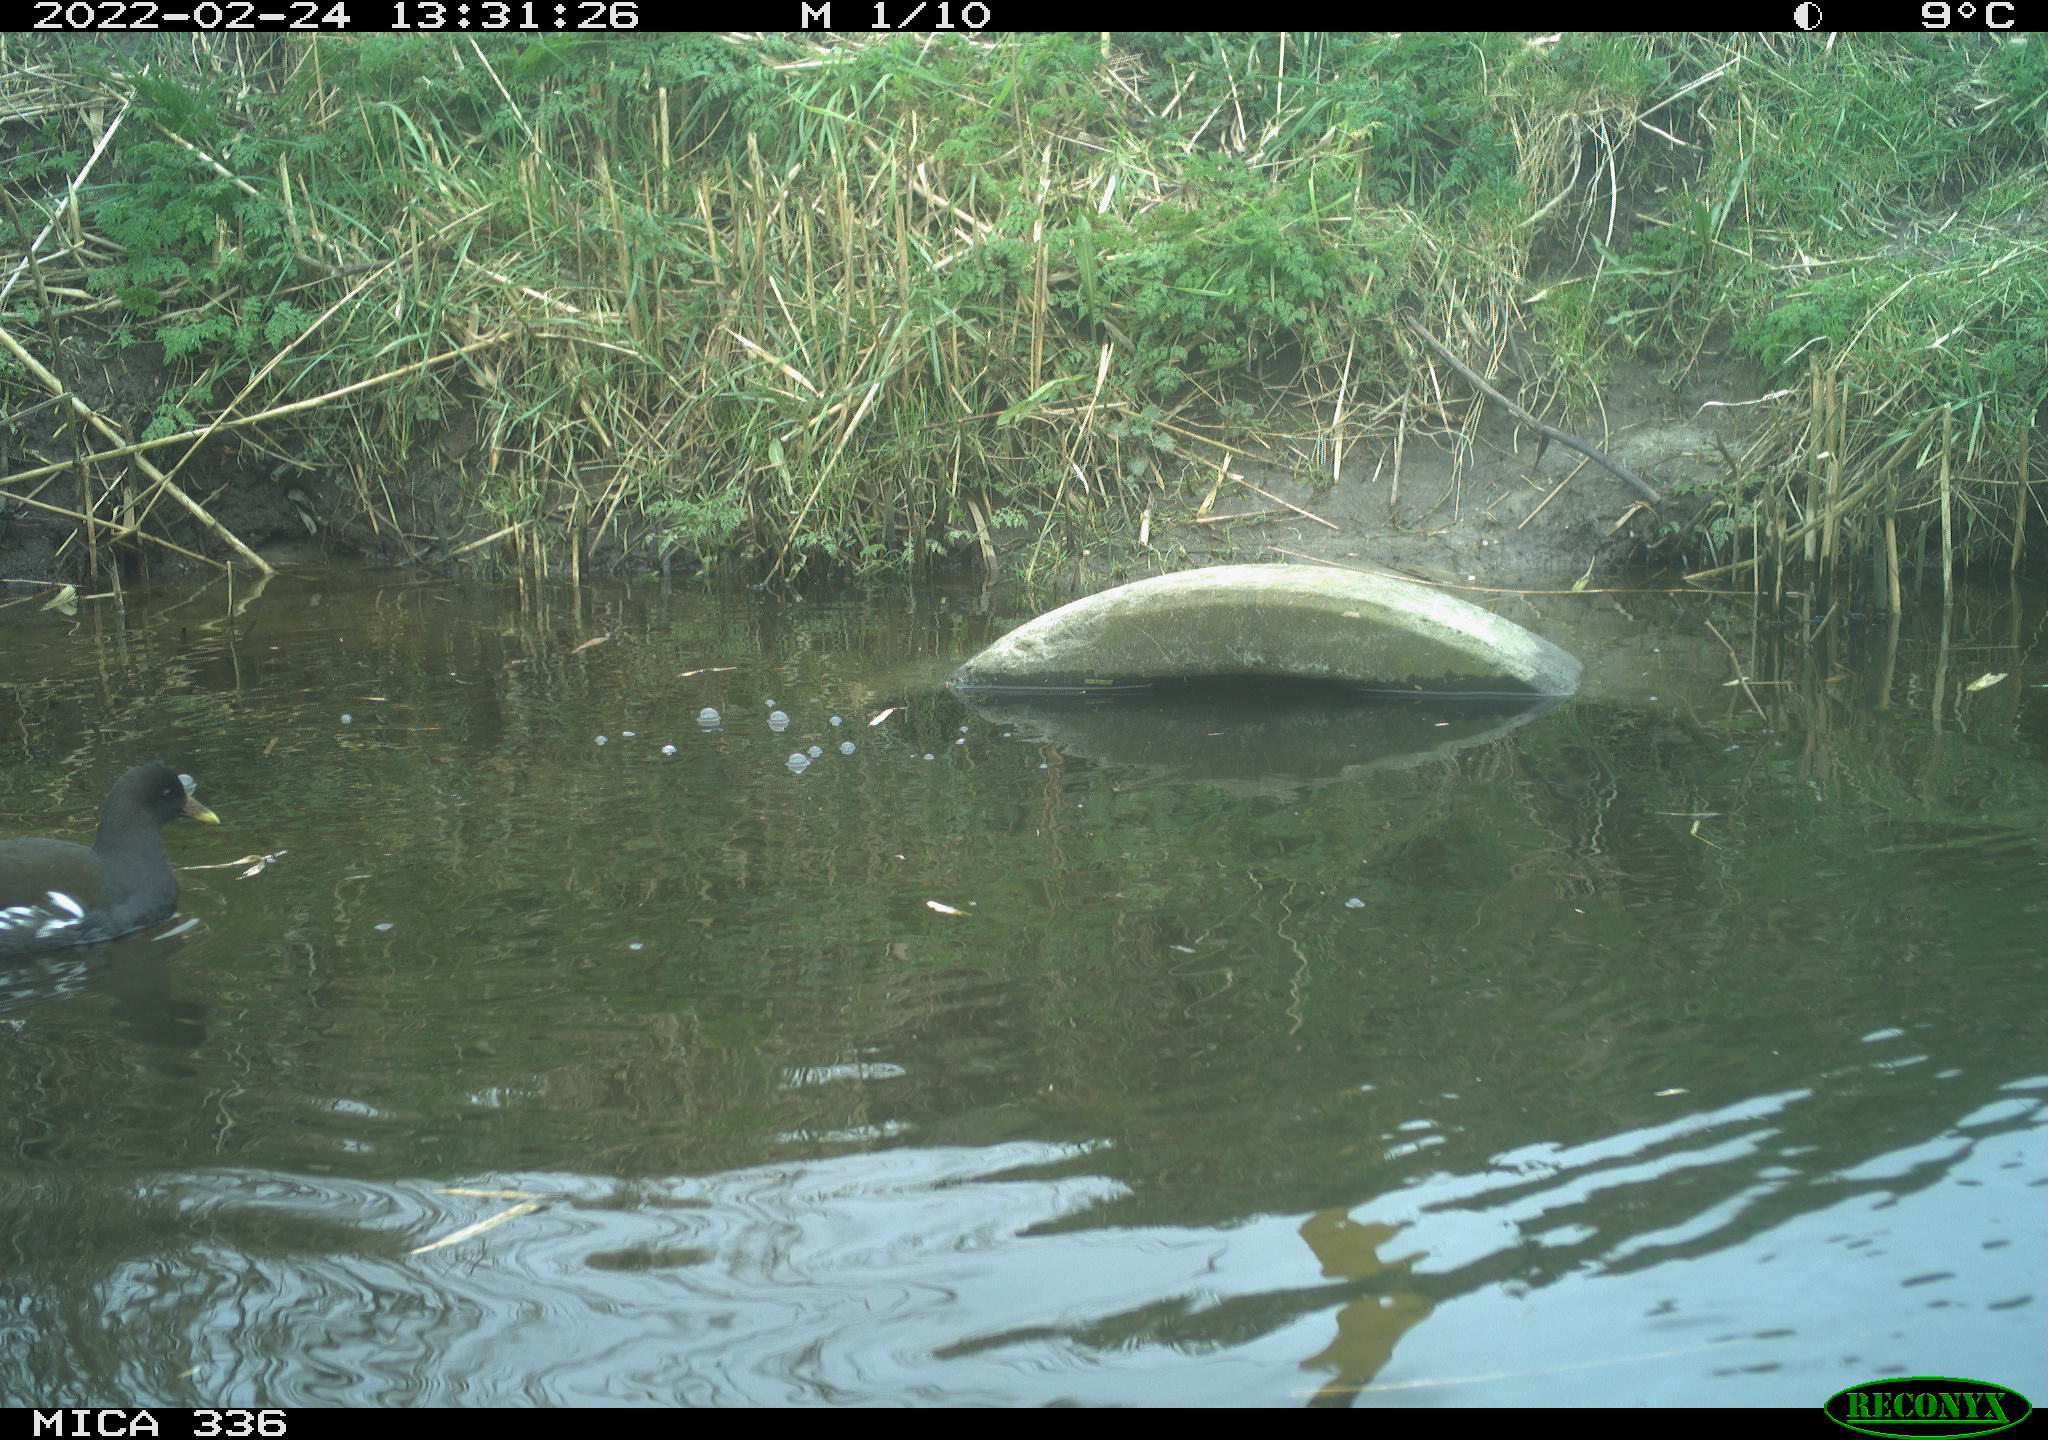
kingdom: Animalia
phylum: Chordata
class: Aves
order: Podicipediformes
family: Podicipedidae
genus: Podiceps
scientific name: Podiceps cristatus
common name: Great crested grebe
